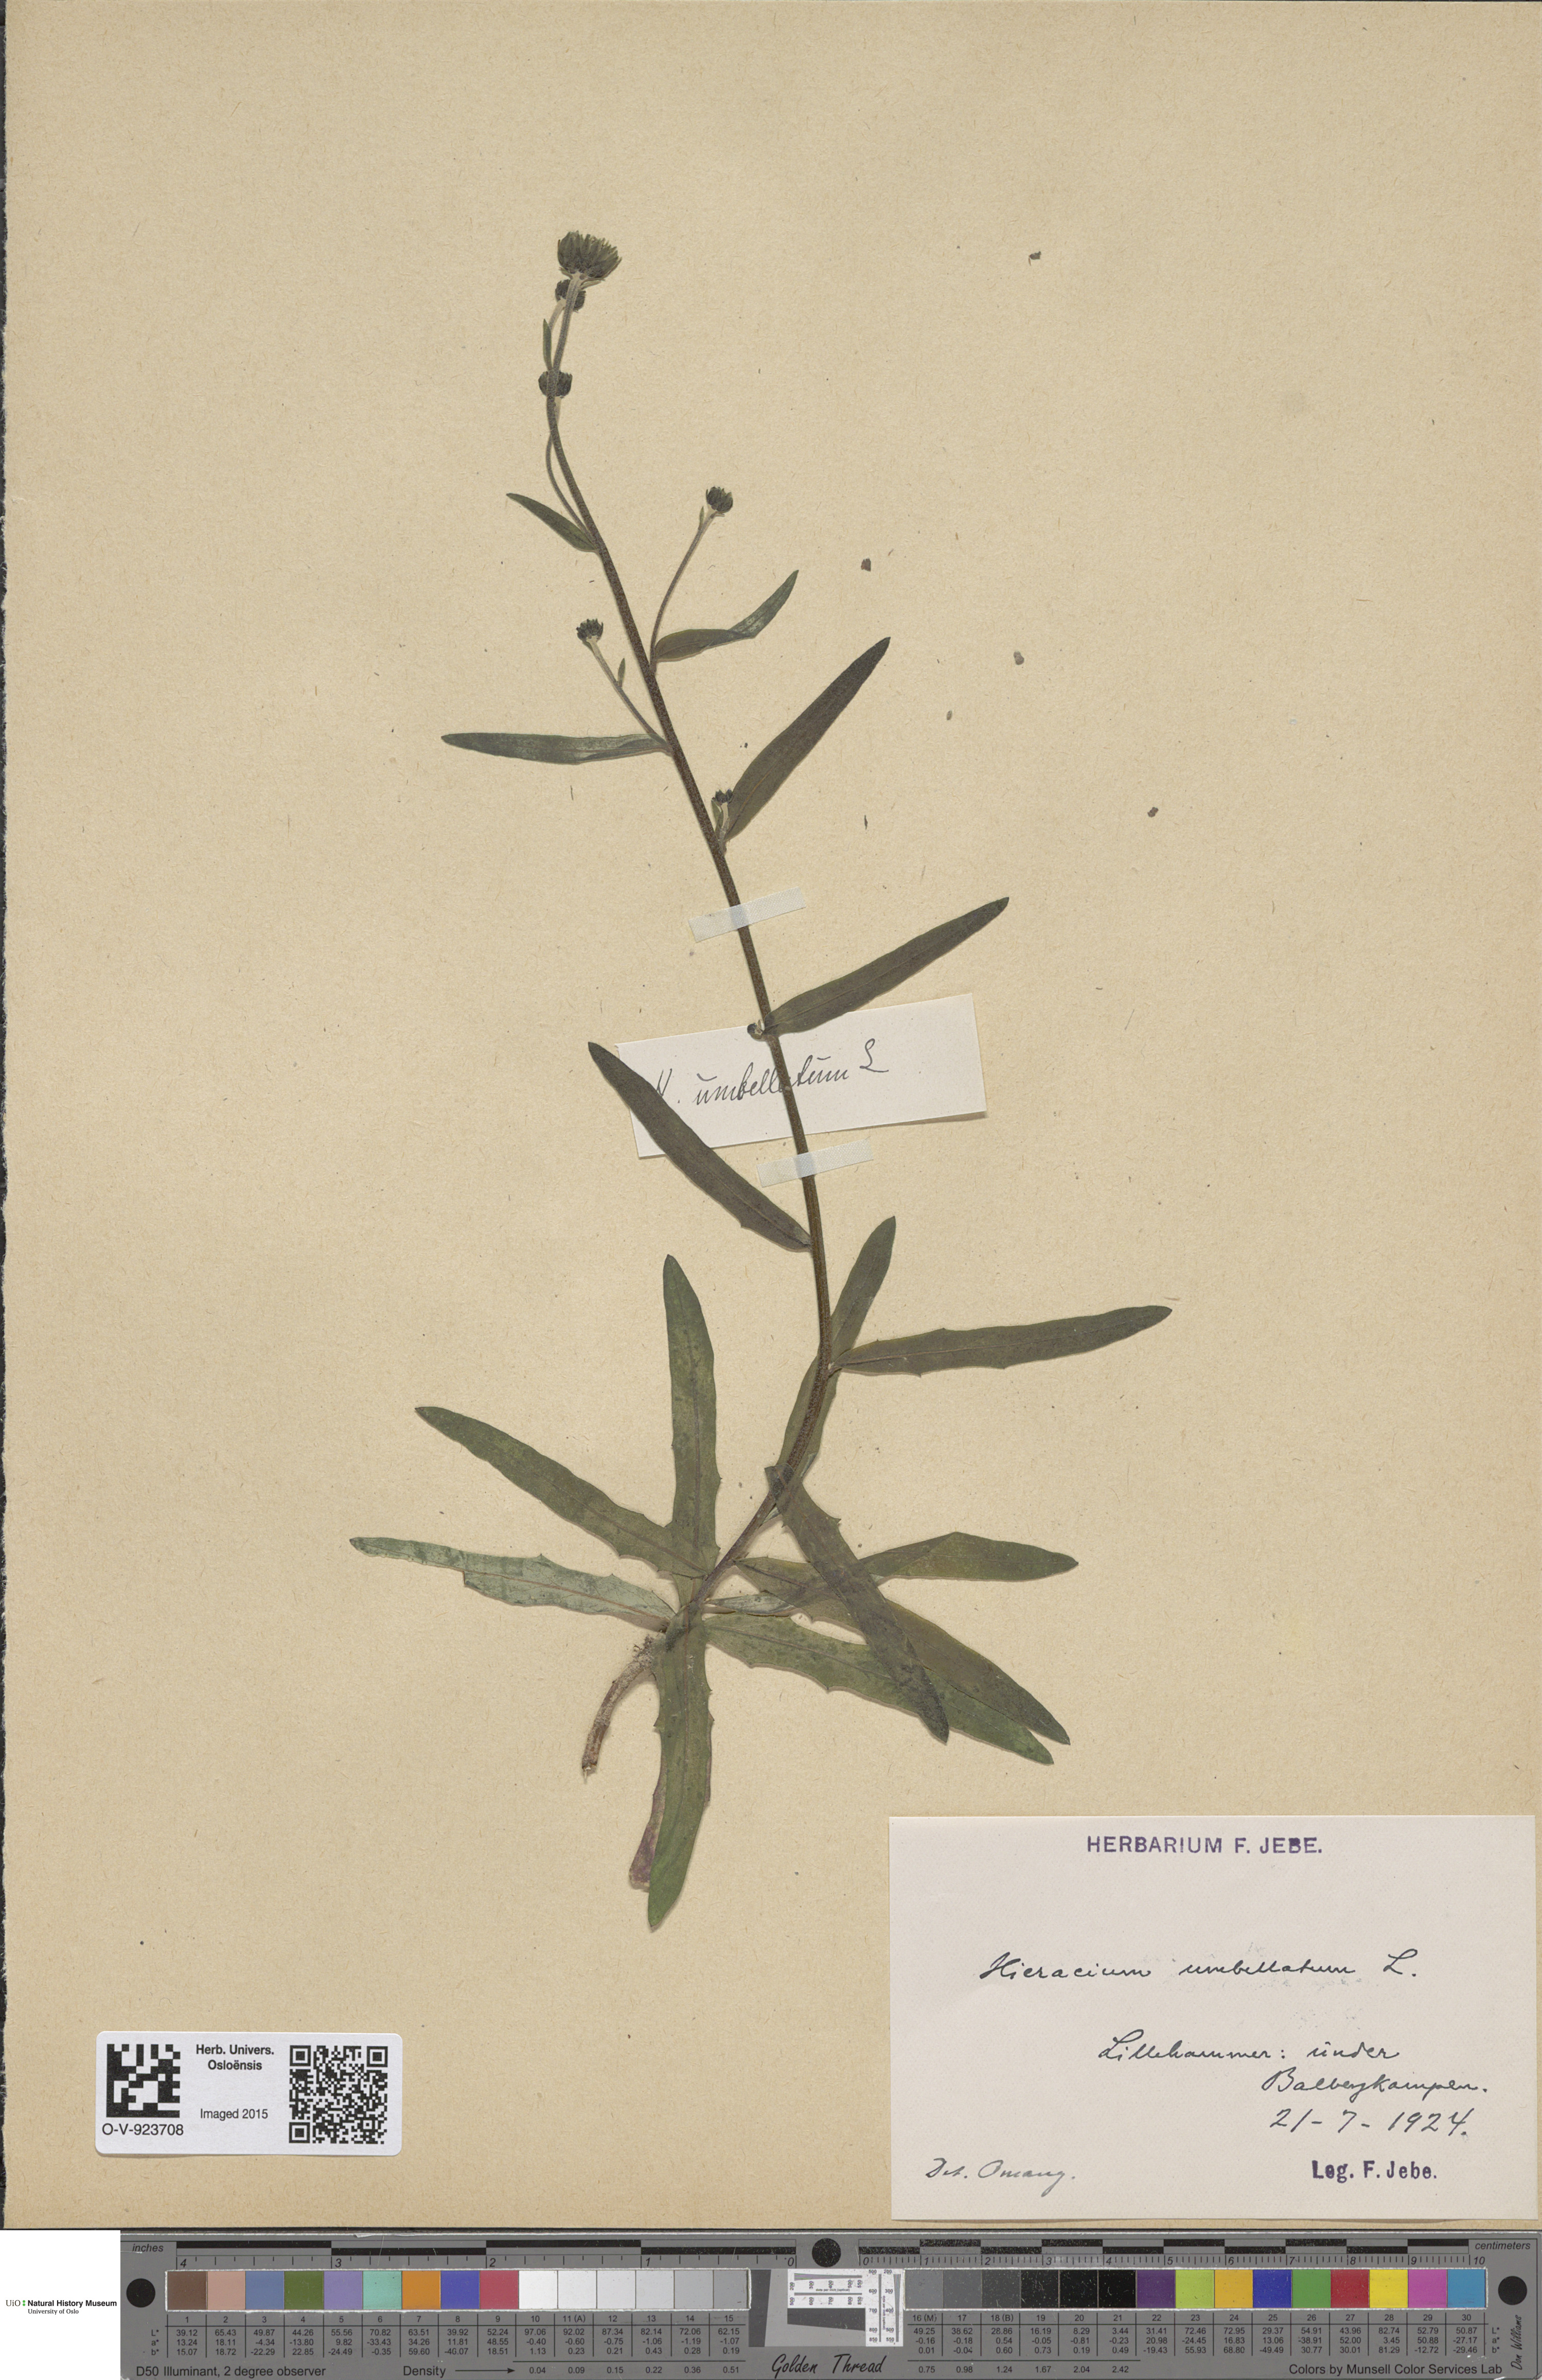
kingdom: Plantae
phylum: Tracheophyta
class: Magnoliopsida
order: Asterales
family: Asteraceae
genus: Hieracium
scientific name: Hieracium umbellatum
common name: Northern hawkweed
